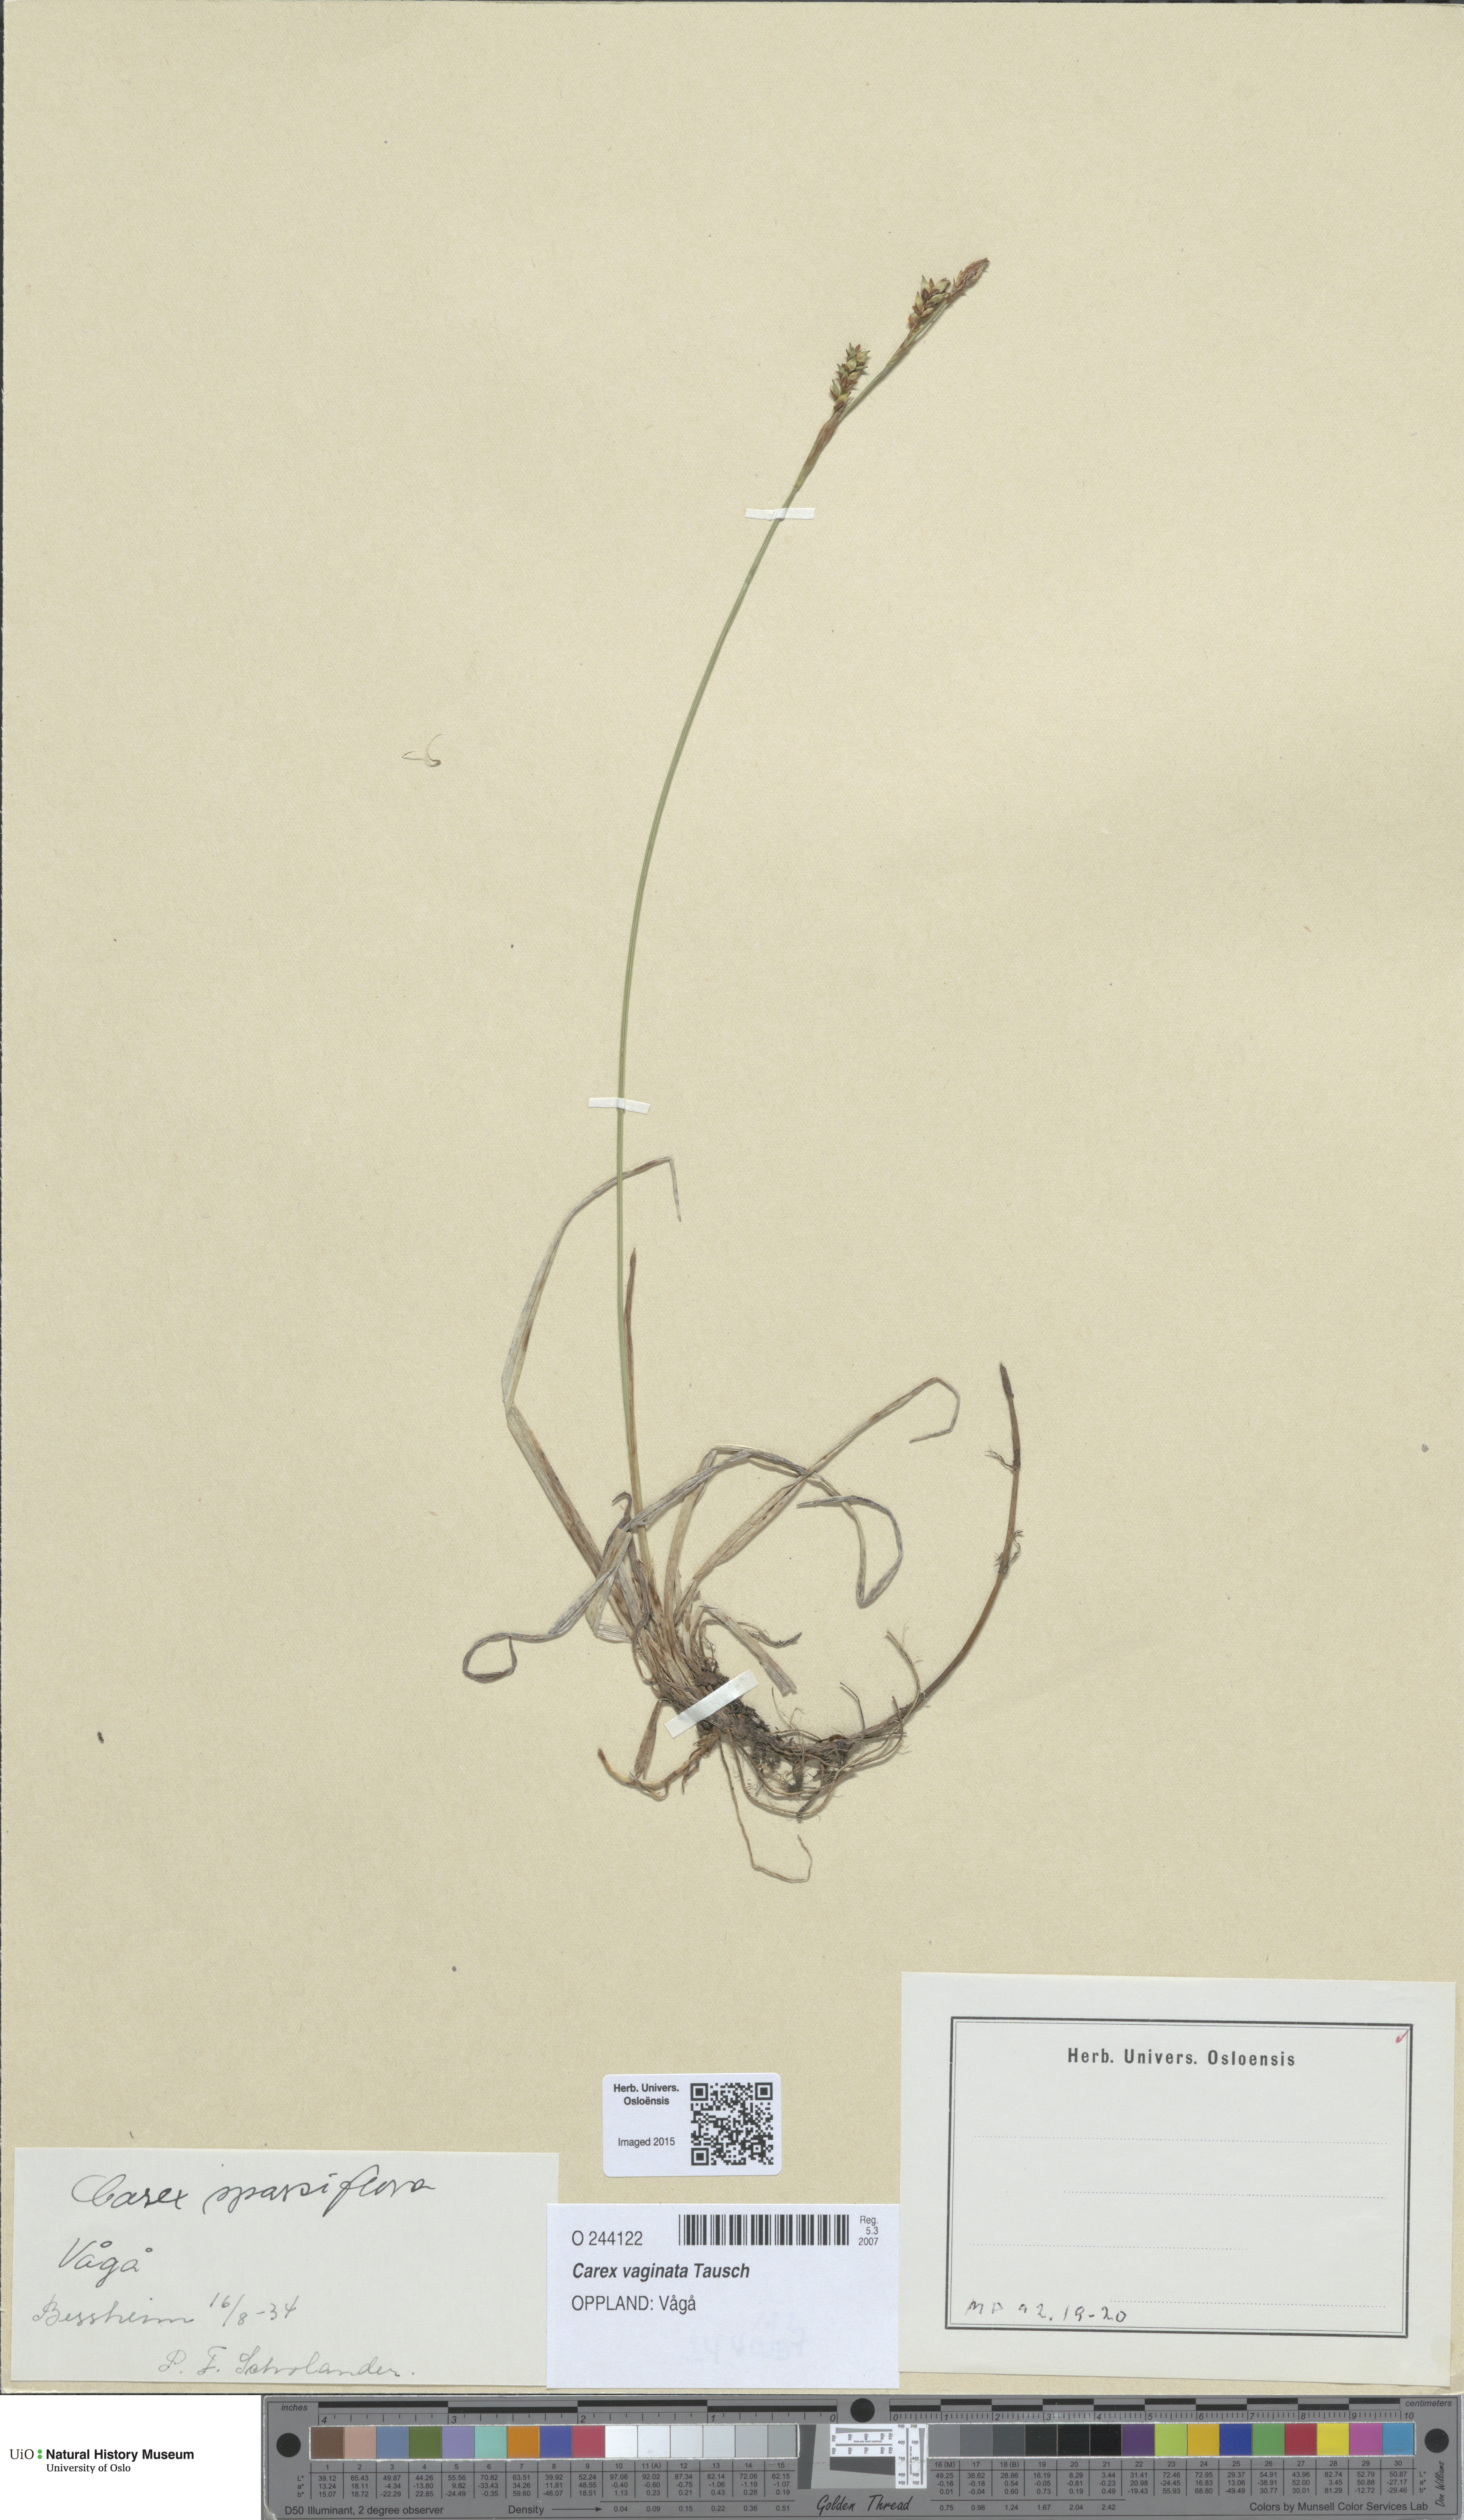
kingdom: Plantae
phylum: Tracheophyta
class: Liliopsida
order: Poales
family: Cyperaceae
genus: Carex
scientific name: Carex vaginata
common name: Sheathed sedge
